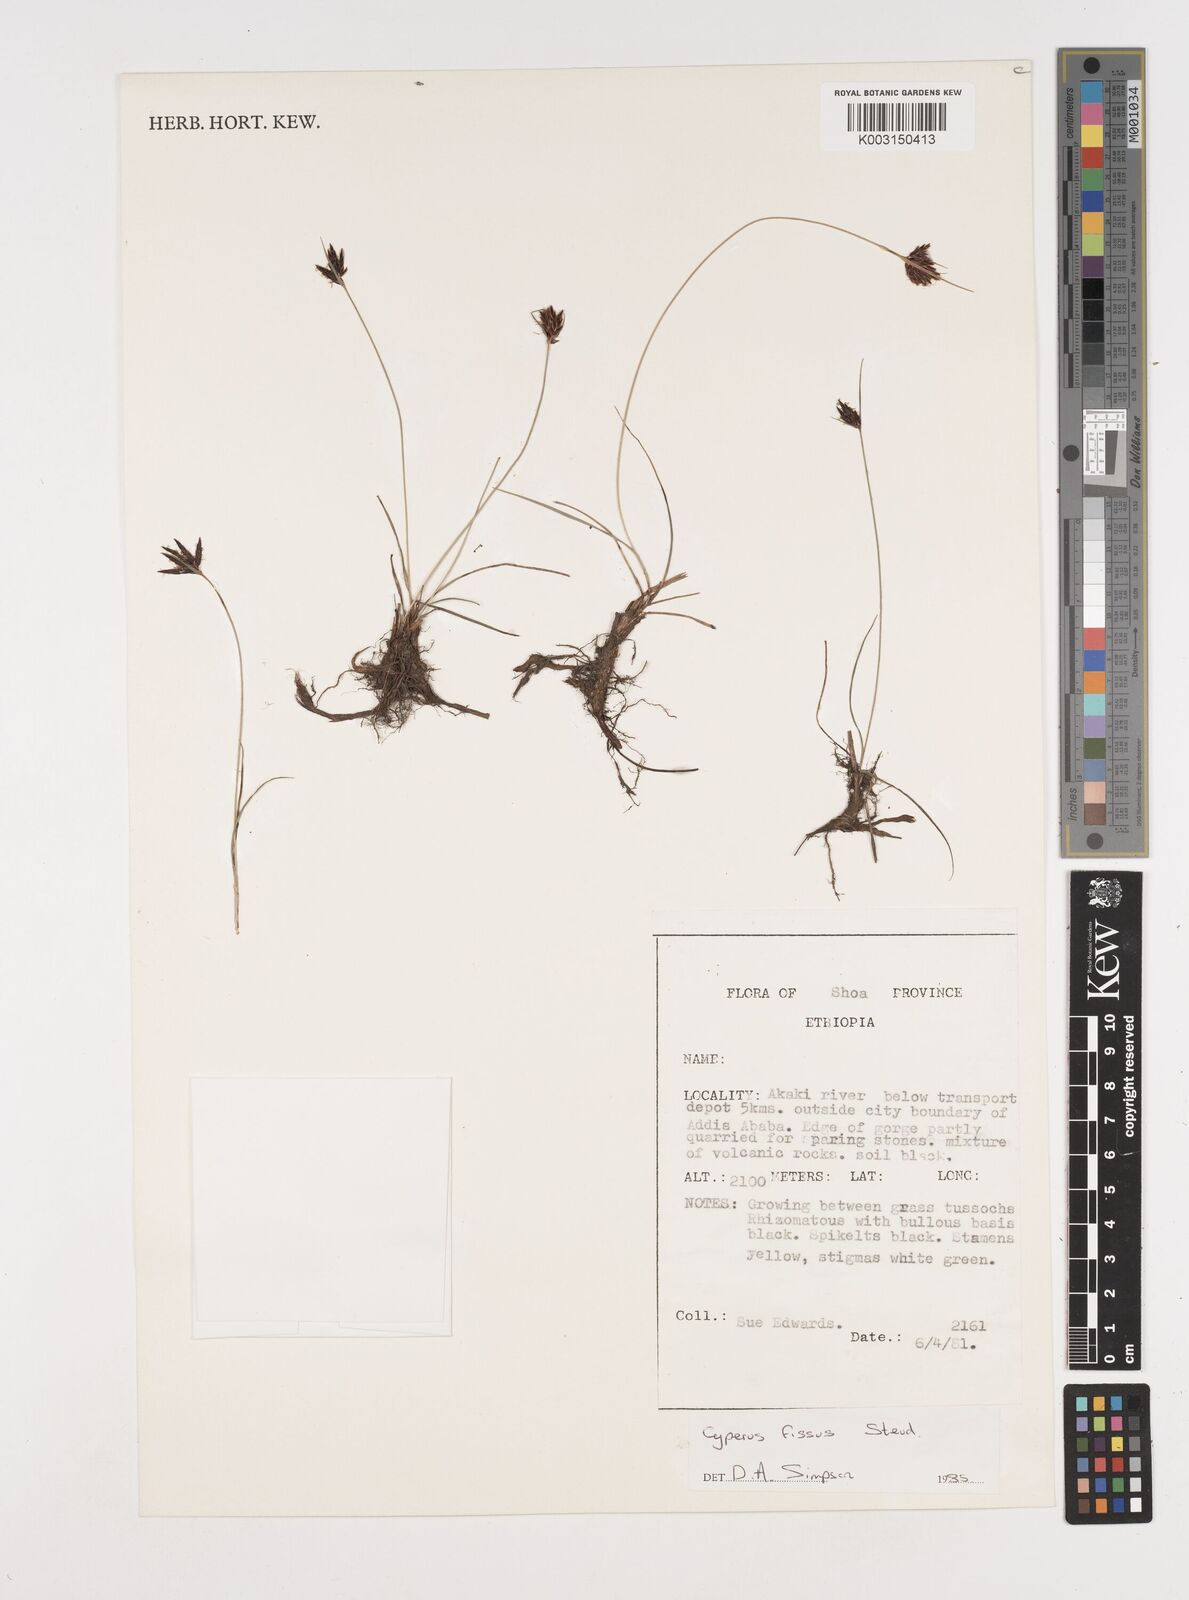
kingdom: Plantae
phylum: Tracheophyta
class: Liliopsida
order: Poales
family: Cyperaceae
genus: Cyperus
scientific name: Cyperus fissus
